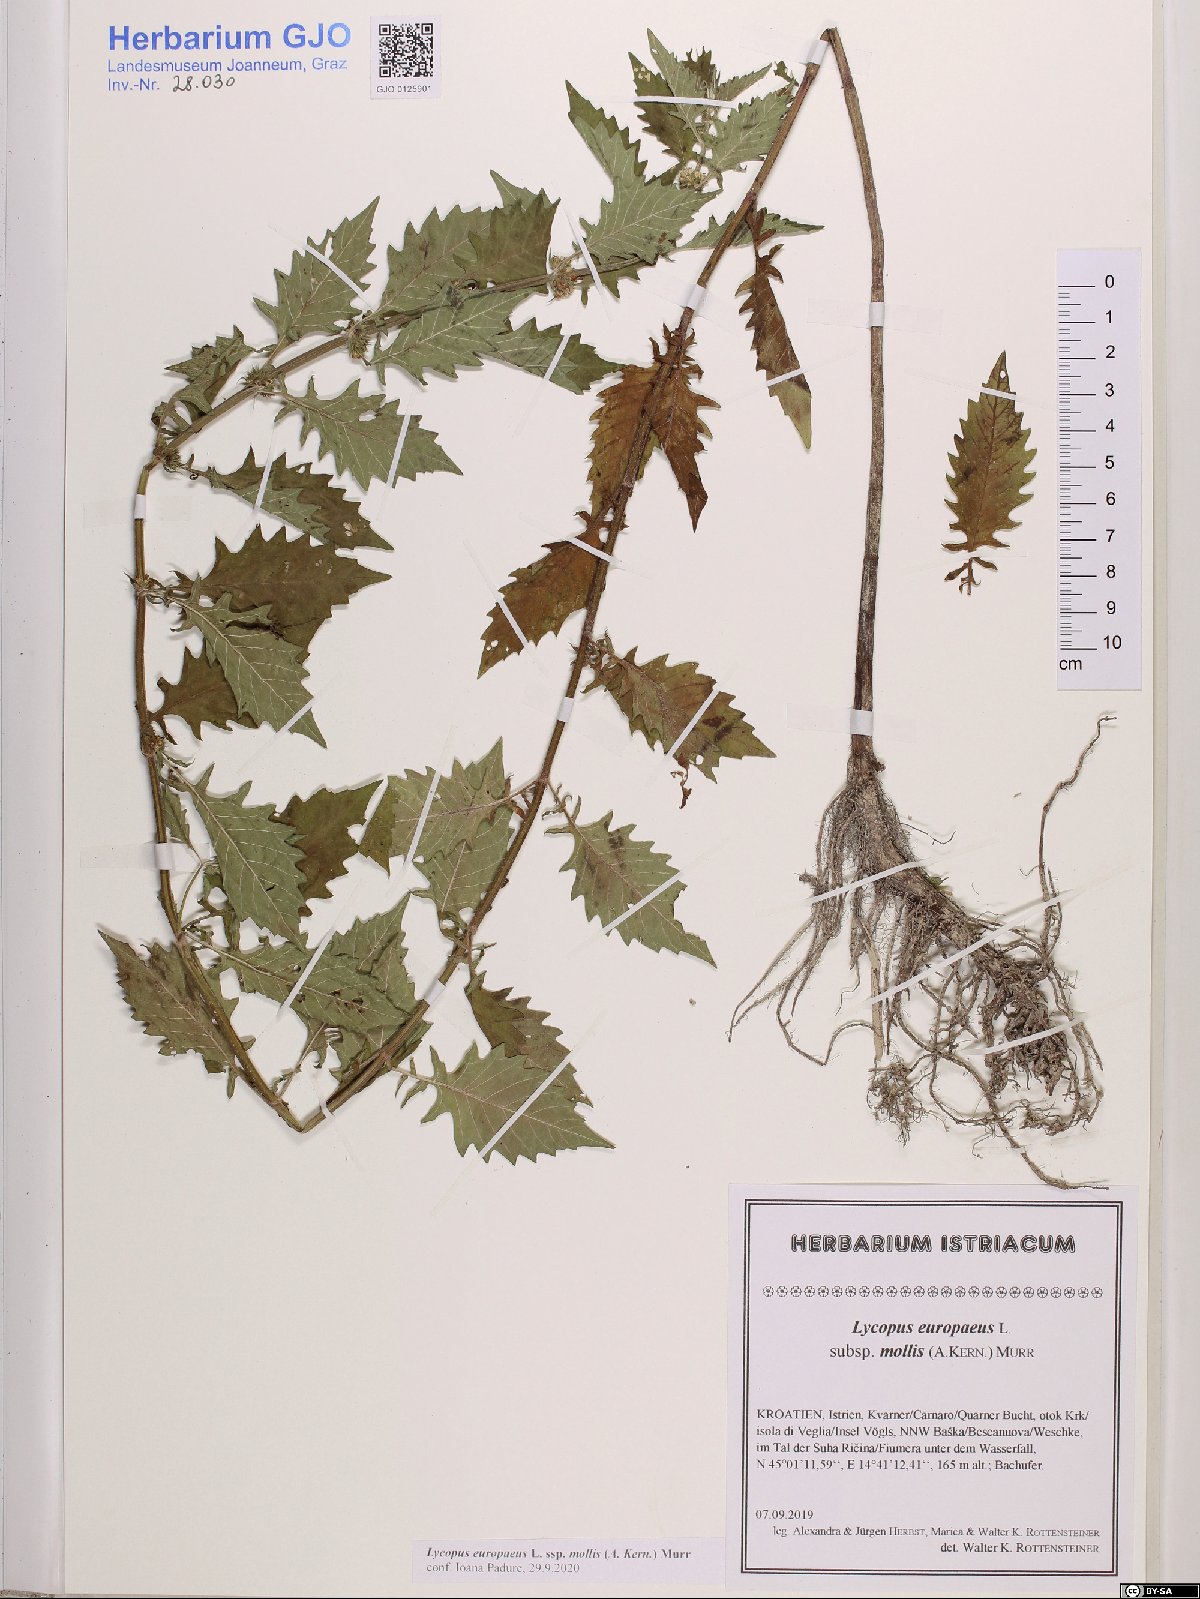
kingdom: Plantae
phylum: Tracheophyta
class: Magnoliopsida
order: Lamiales
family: Lamiaceae
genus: Lycopus
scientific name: Lycopus europaeus
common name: European bugleweed
